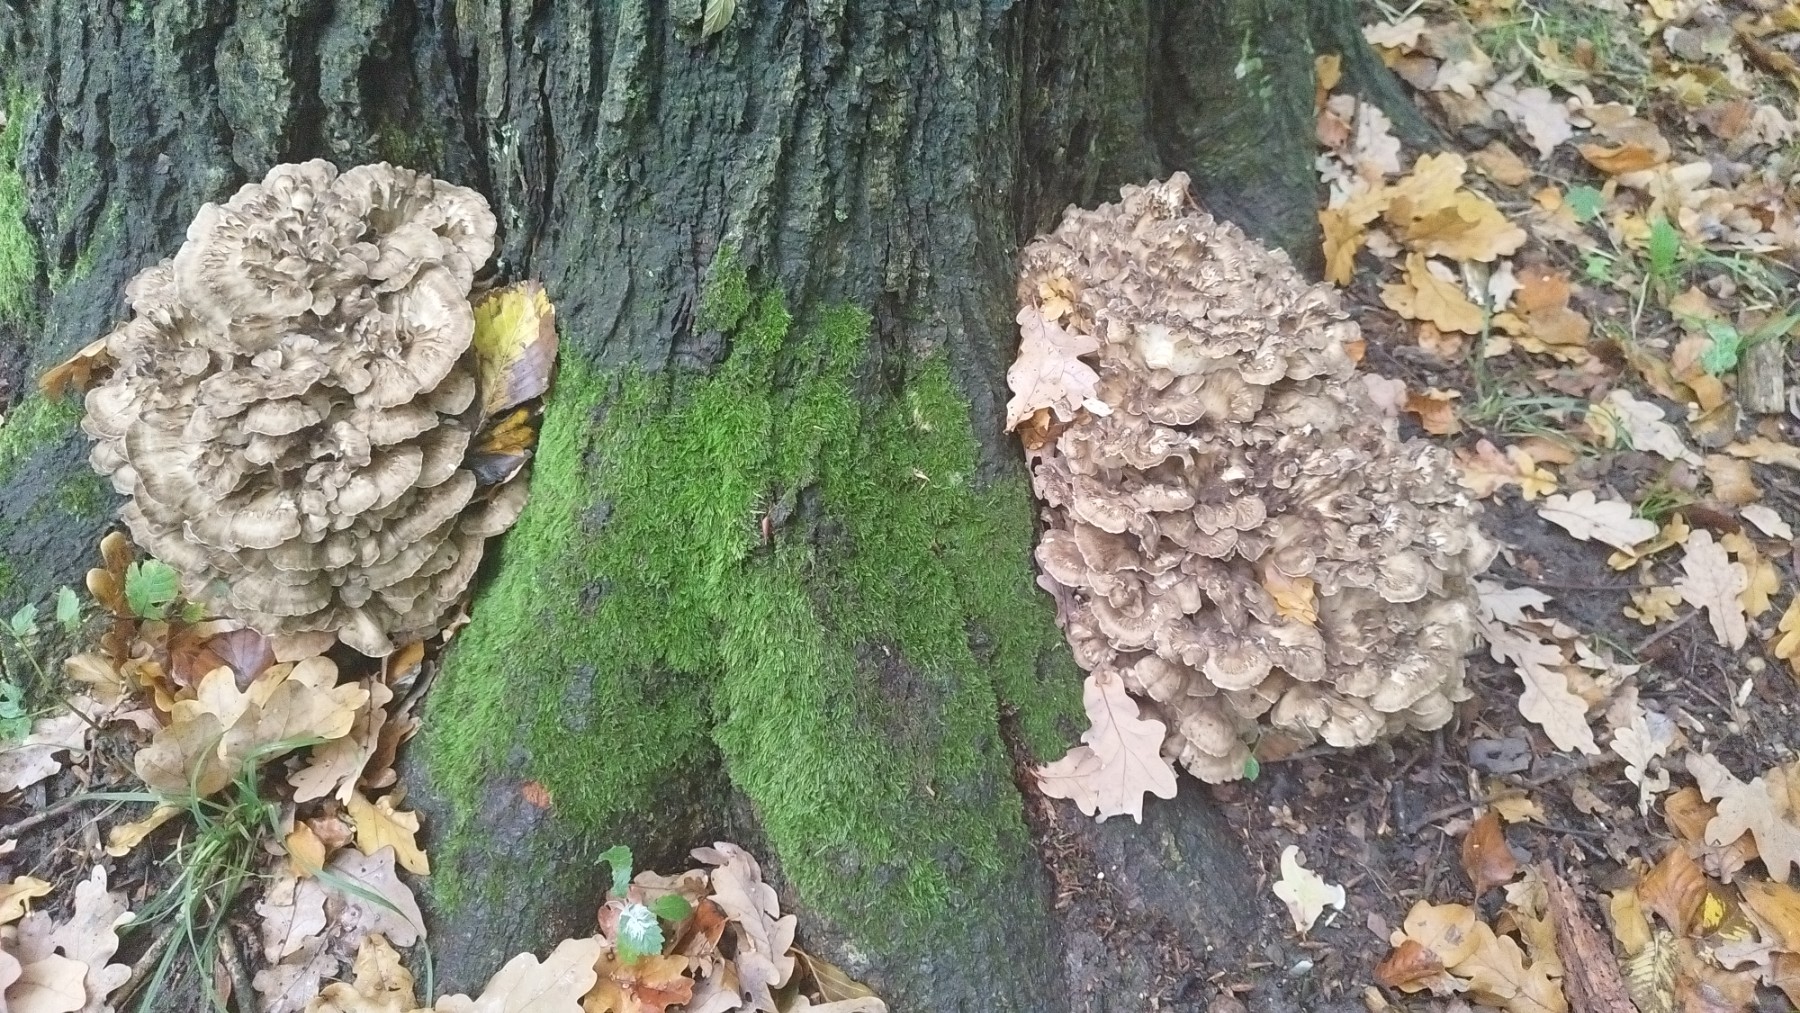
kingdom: Fungi
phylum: Basidiomycota
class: Agaricomycetes
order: Polyporales
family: Grifolaceae
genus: Grifola
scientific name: Grifola frondosa
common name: tueporesvamp
